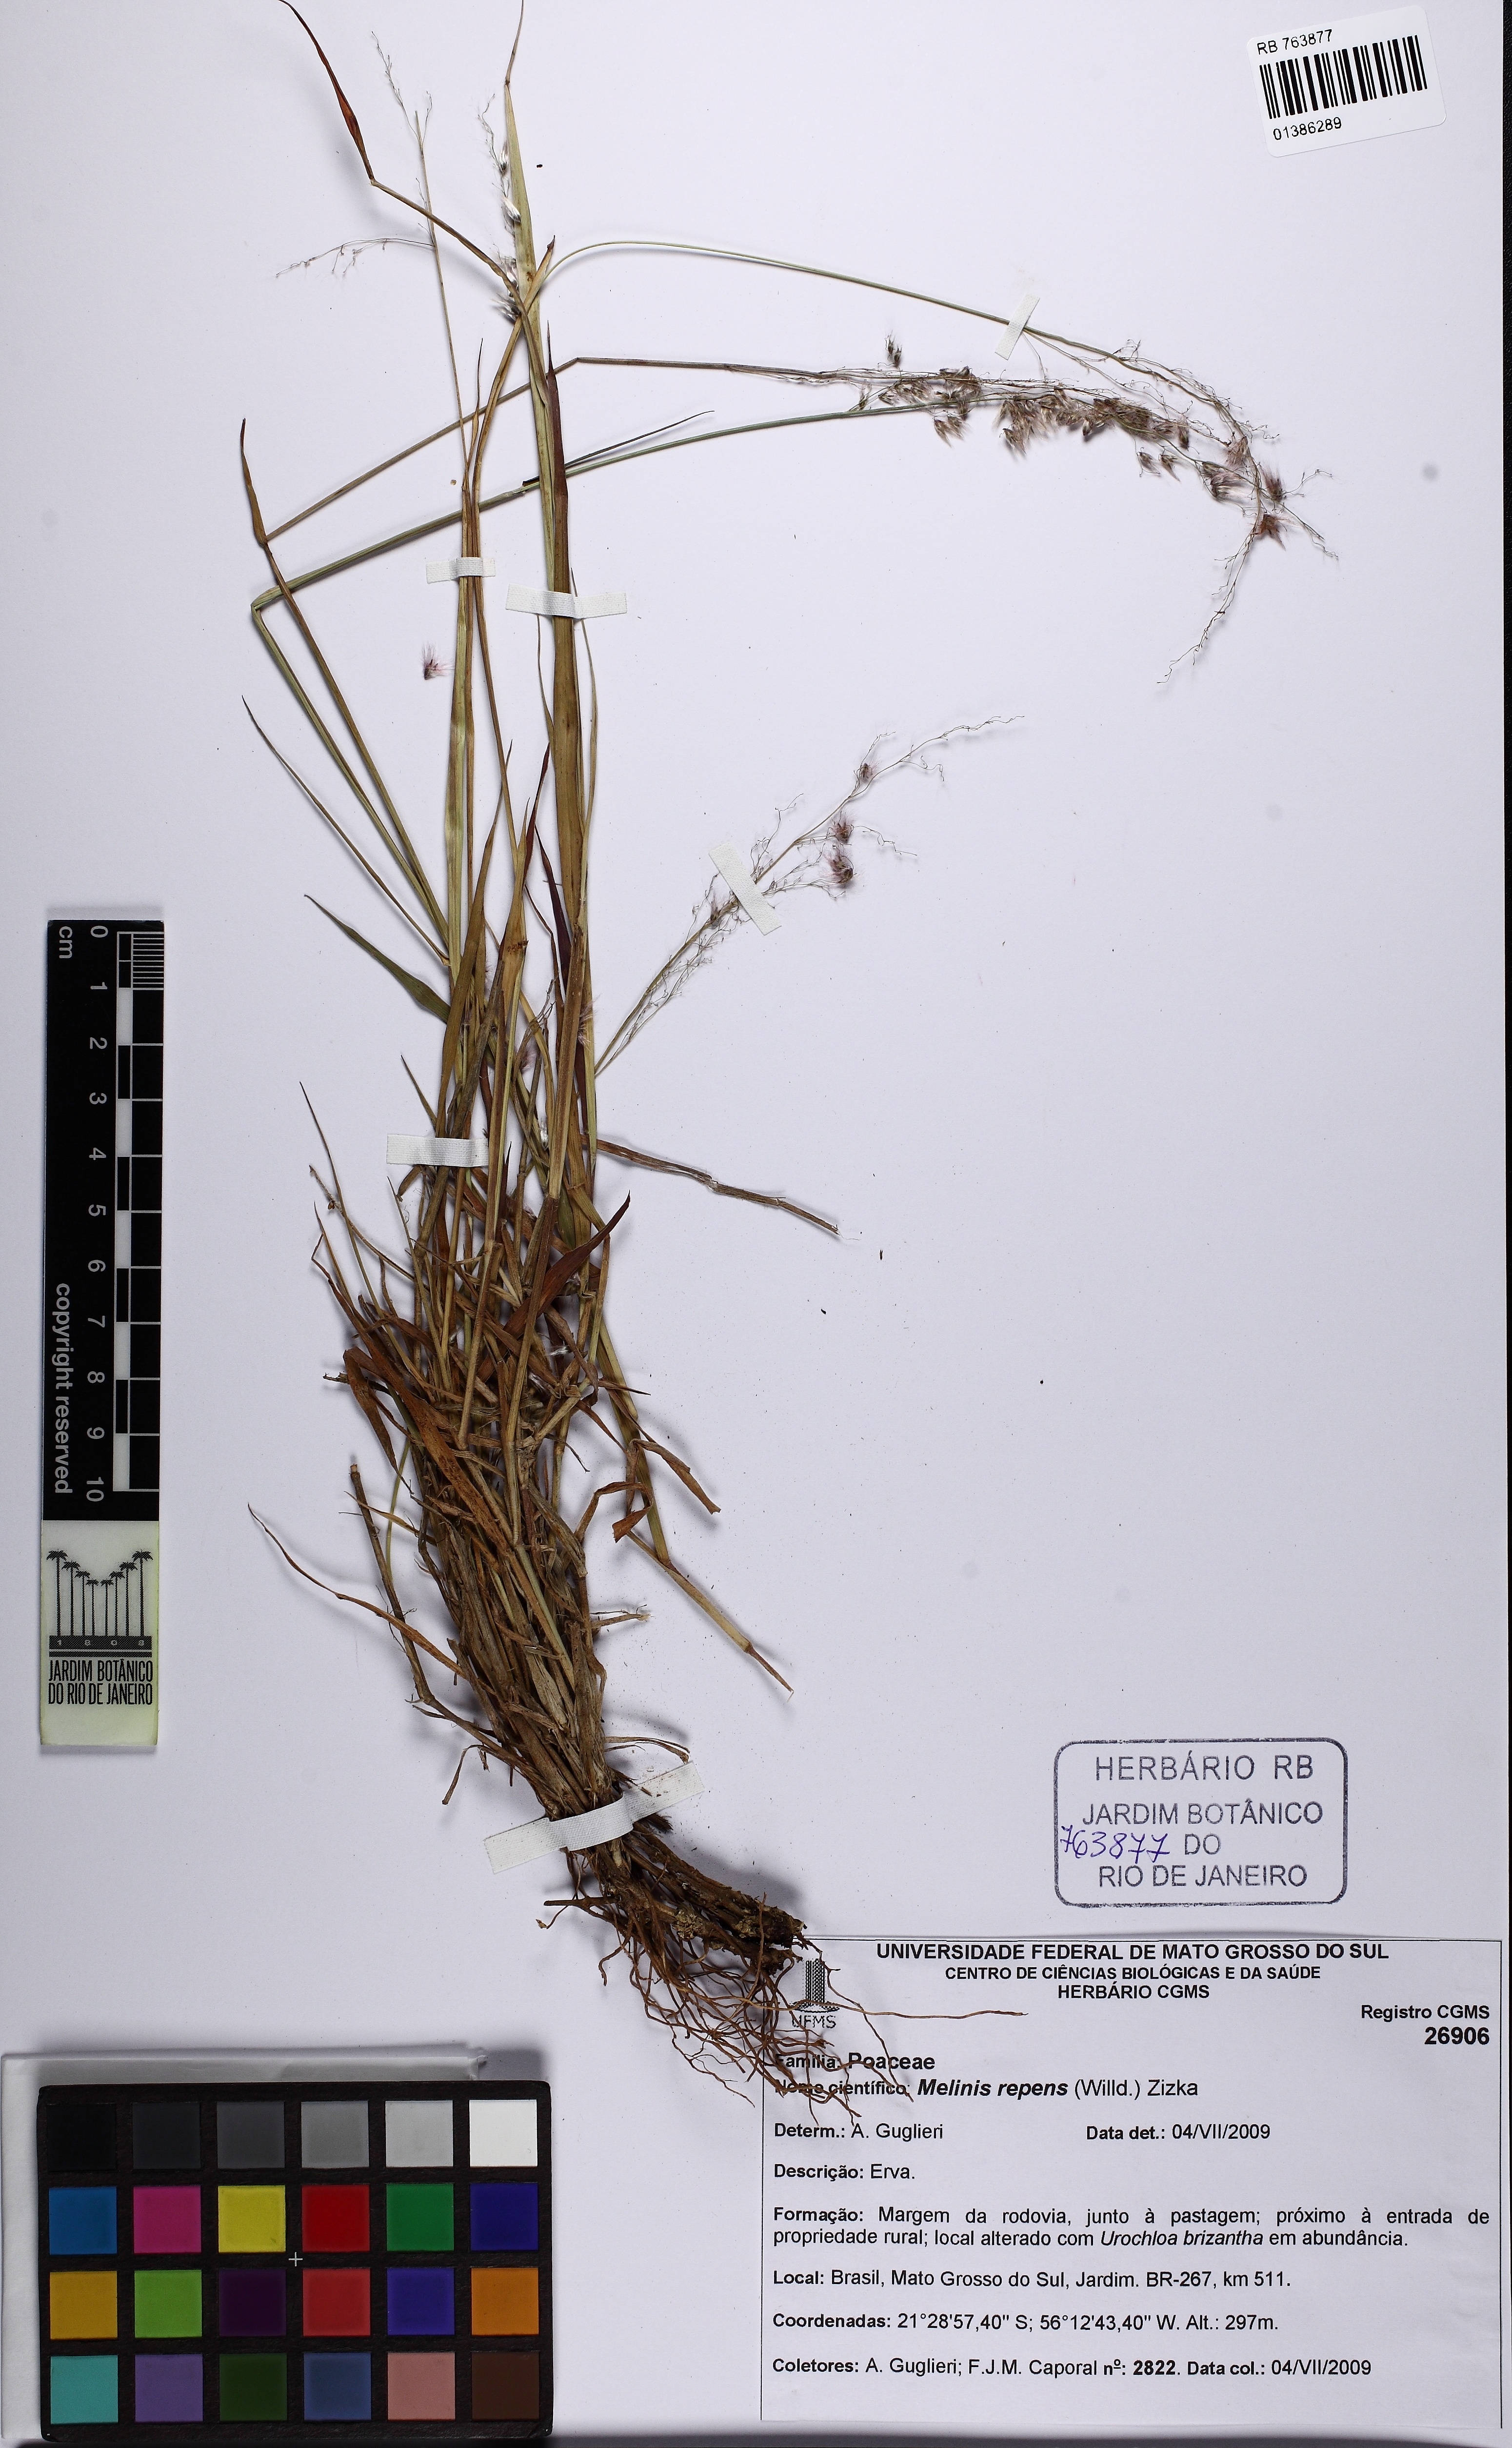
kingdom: Plantae
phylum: Tracheophyta
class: Liliopsida
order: Poales
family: Poaceae
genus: Melinis
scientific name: Melinis repens
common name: Rose natal grass
